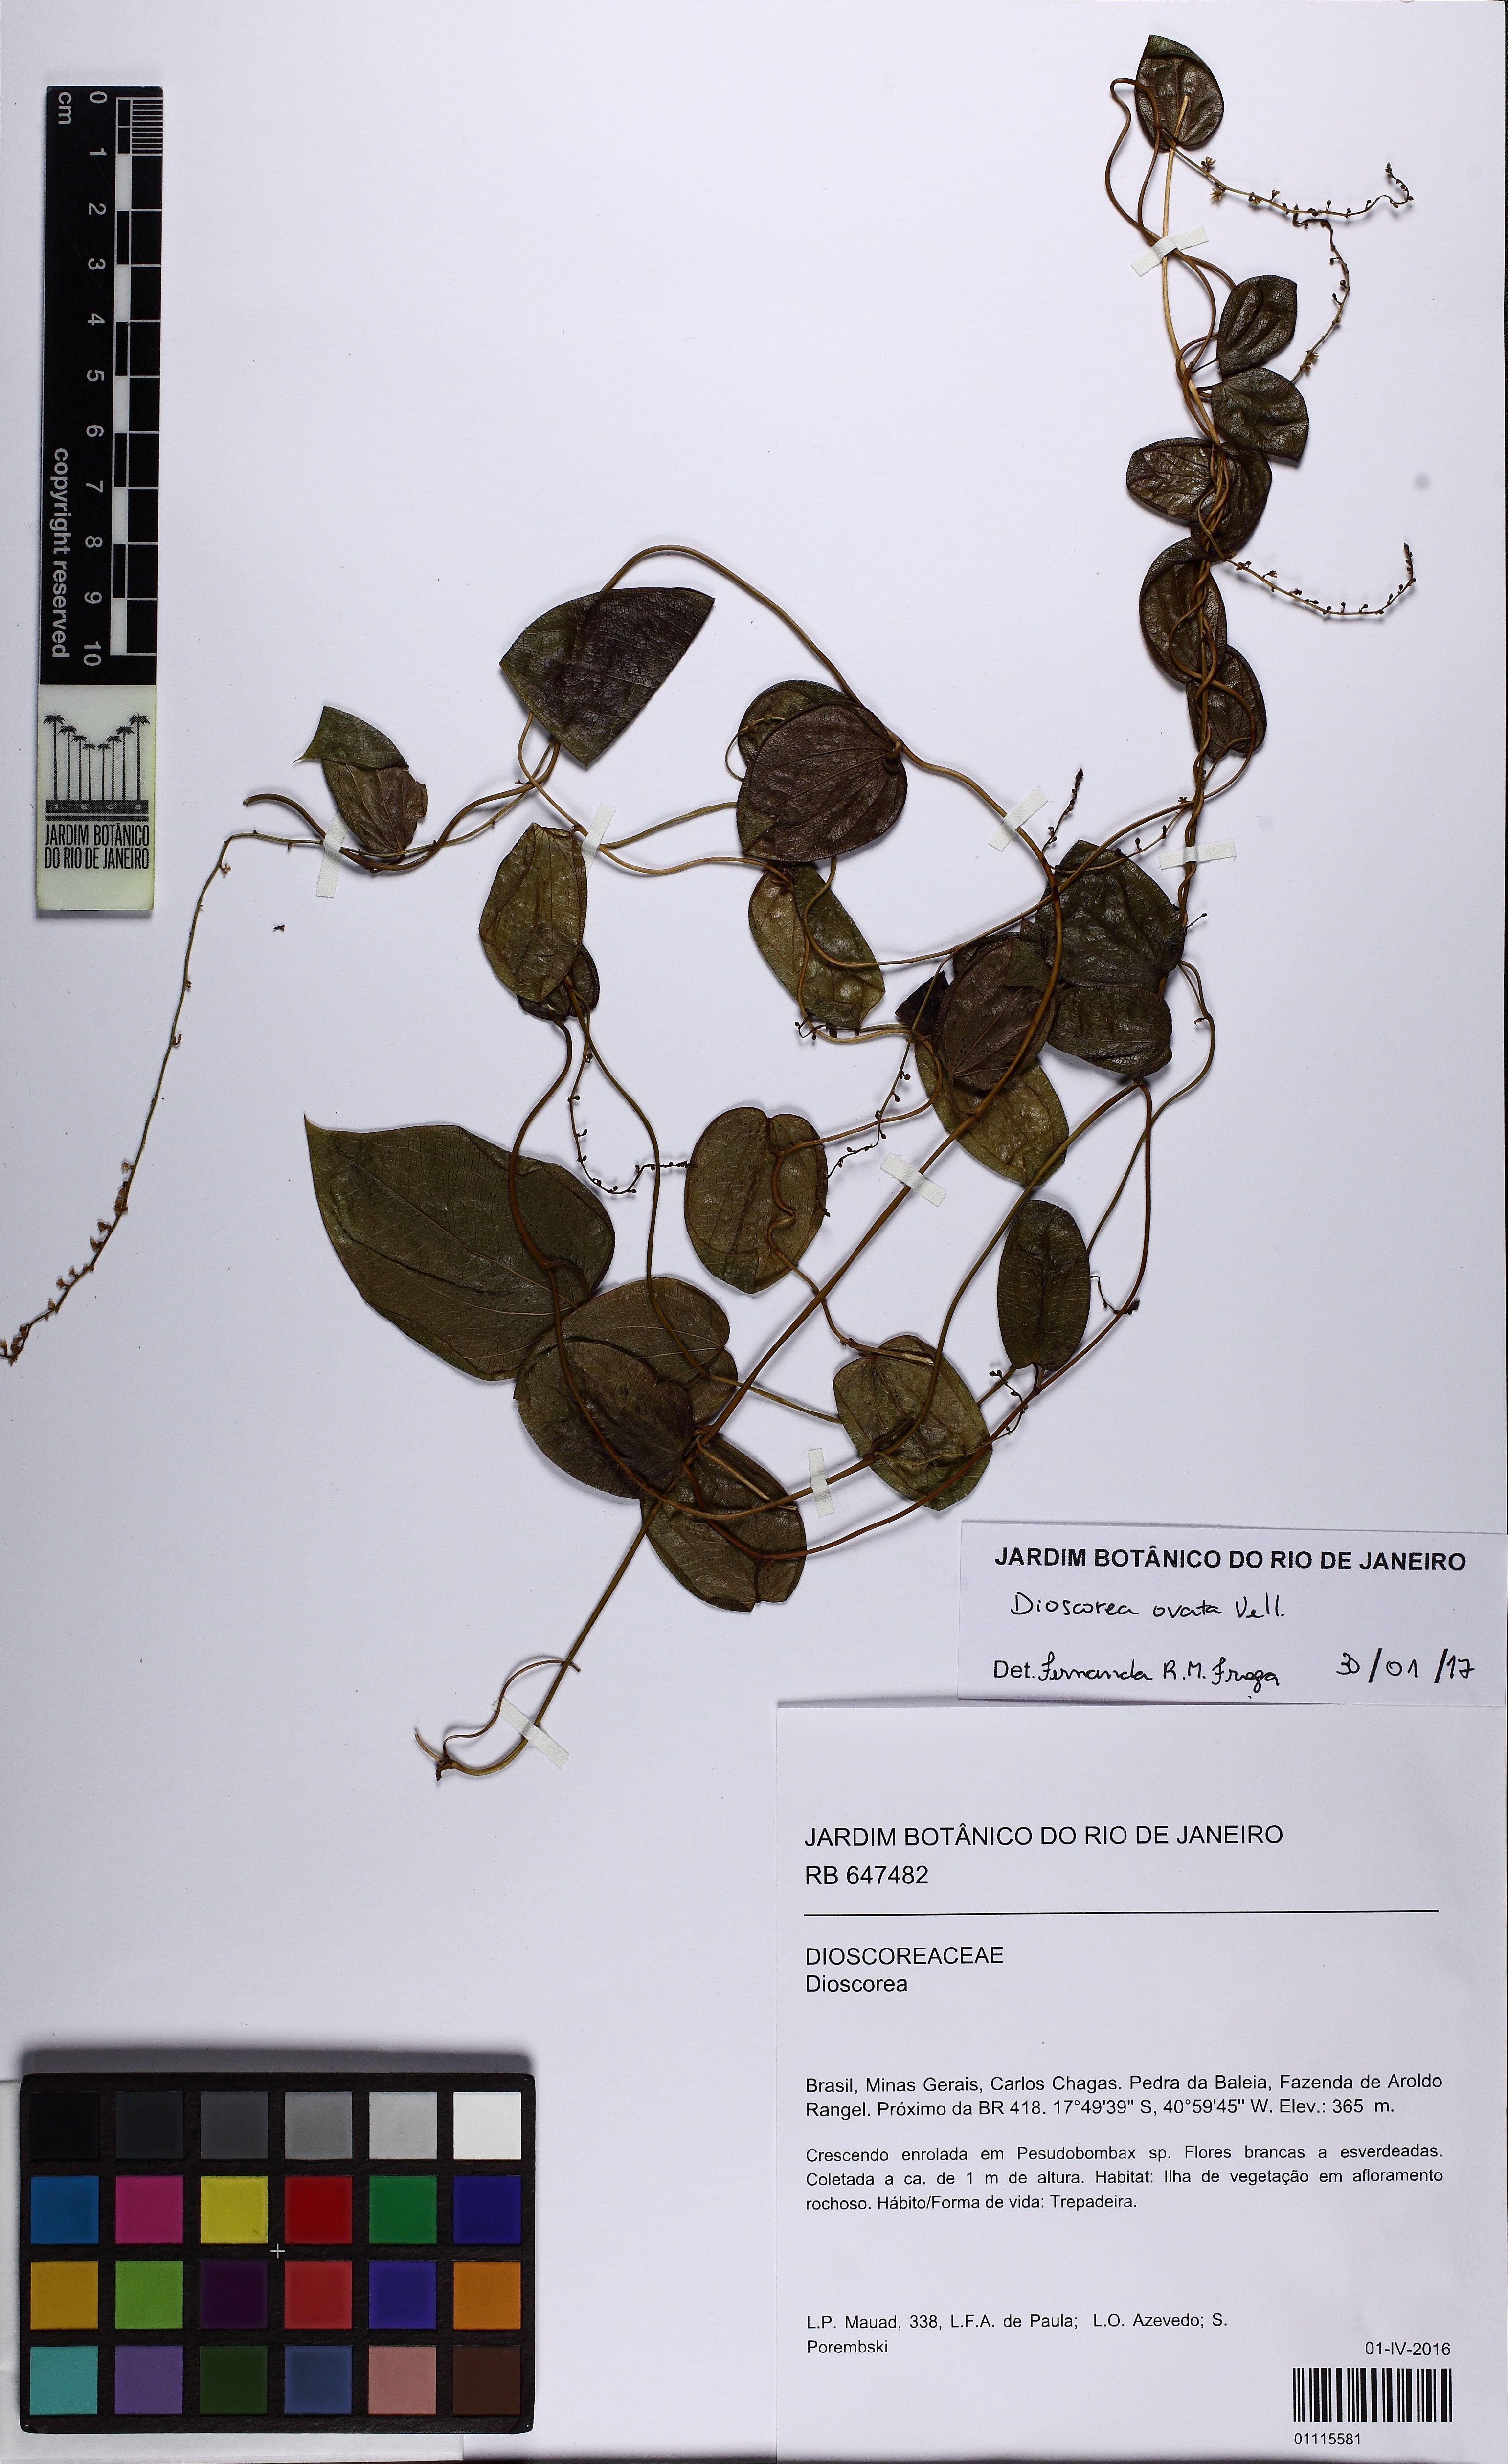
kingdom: Plantae
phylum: Tracheophyta
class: Liliopsida
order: Dioscoreales
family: Dioscoreaceae
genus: Dioscorea
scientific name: Dioscorea ovata
